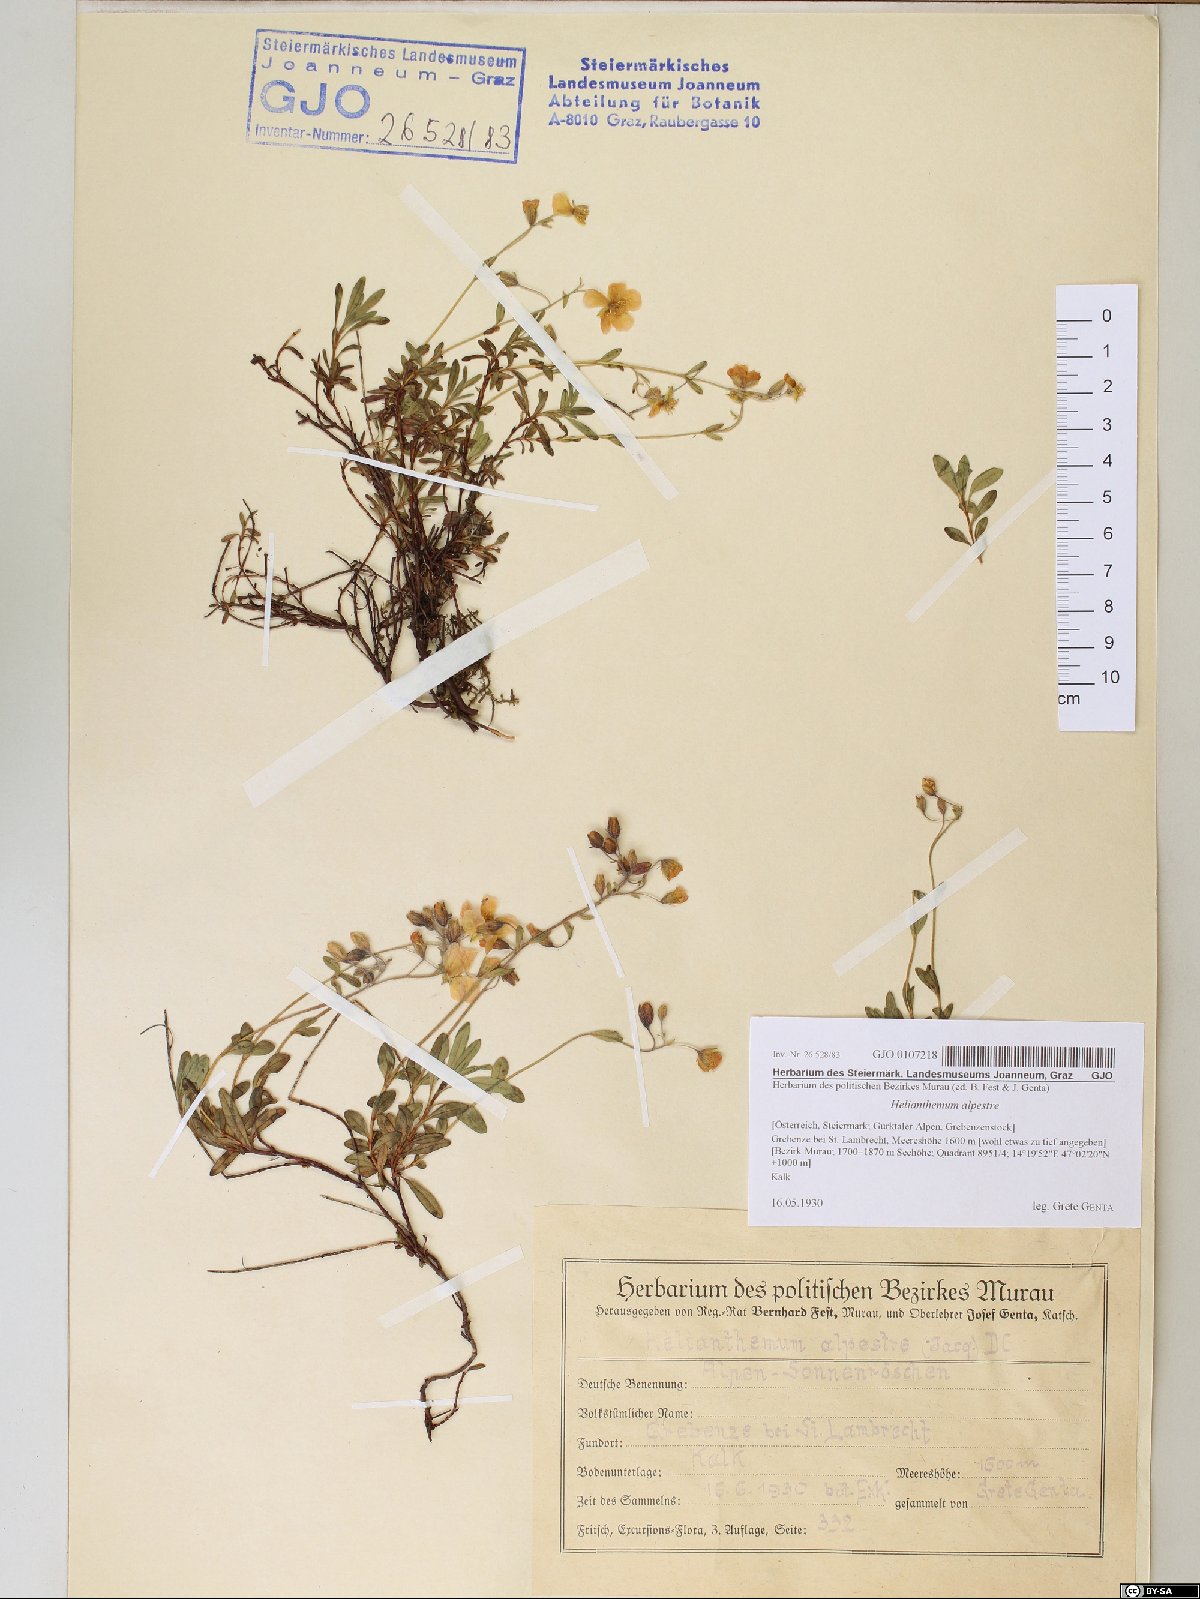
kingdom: Plantae
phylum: Tracheophyta
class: Magnoliopsida
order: Malvales
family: Cistaceae
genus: Helianthemum
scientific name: Helianthemum alpestre
